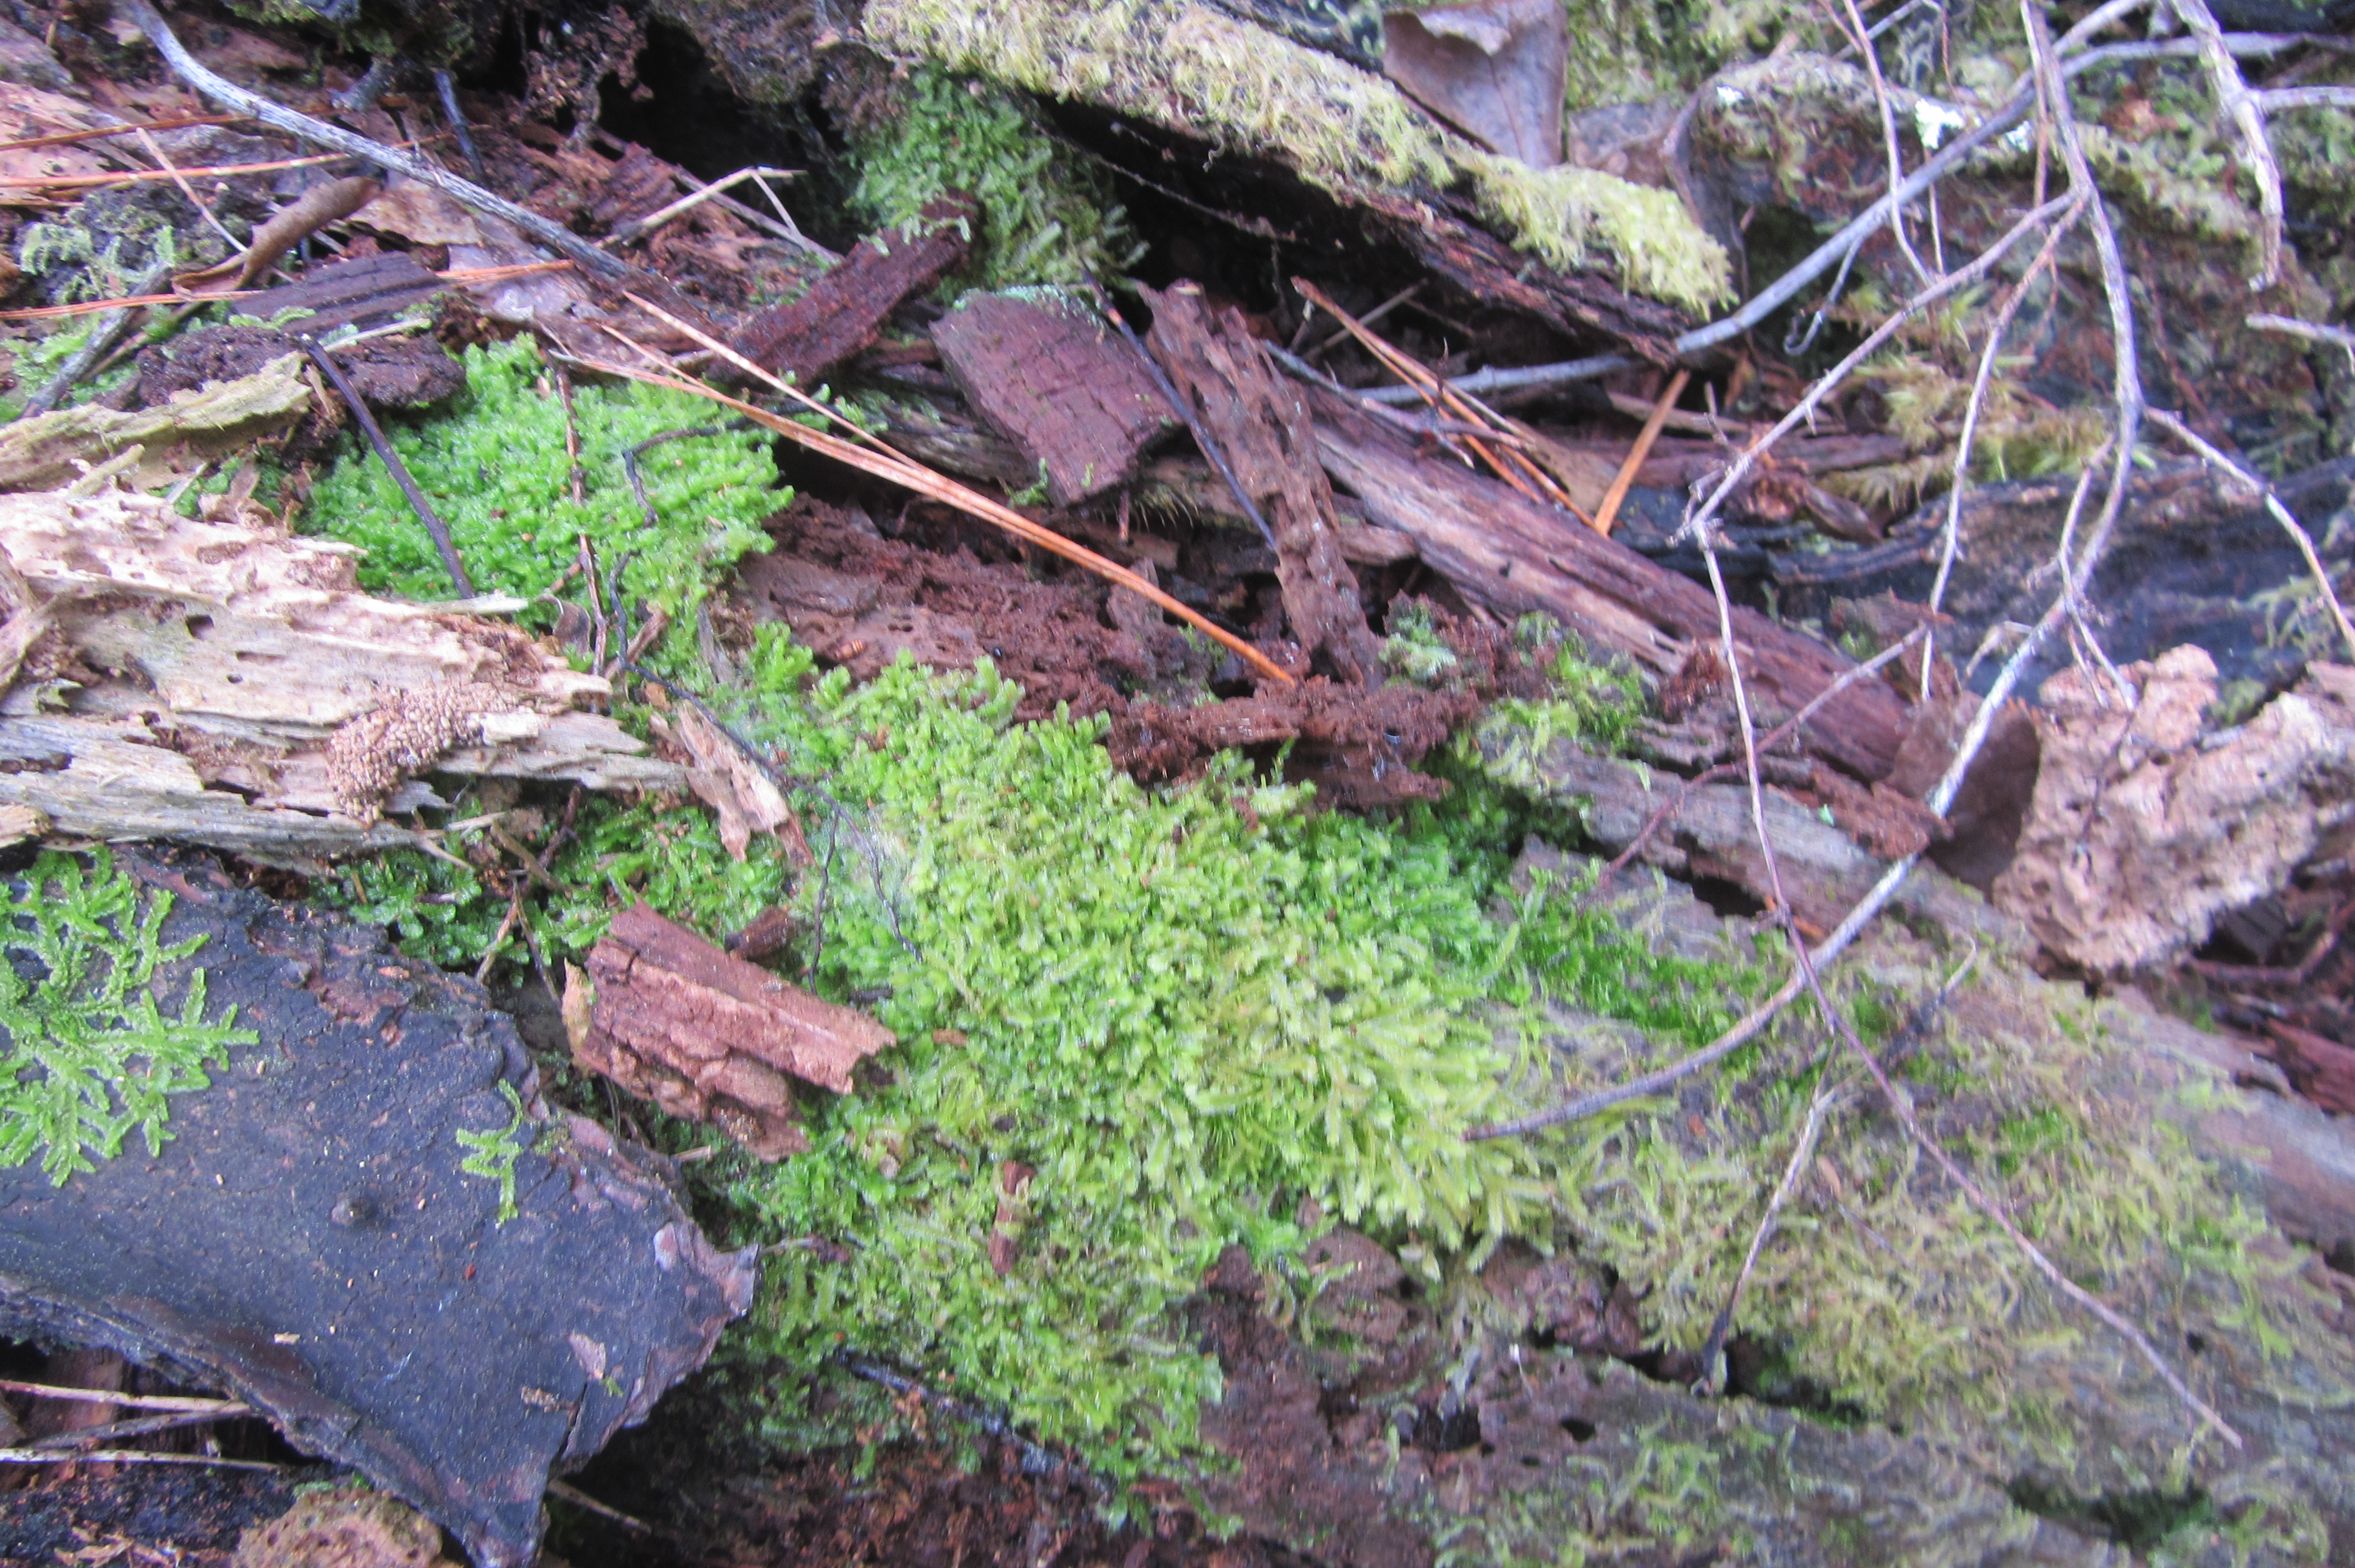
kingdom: Plantae
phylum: Marchantiophyta
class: Jungermanniopsida
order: Jungermanniales
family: Lophocoleaceae
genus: Lophocolea
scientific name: Lophocolea semiteres
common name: Southern crestwort
